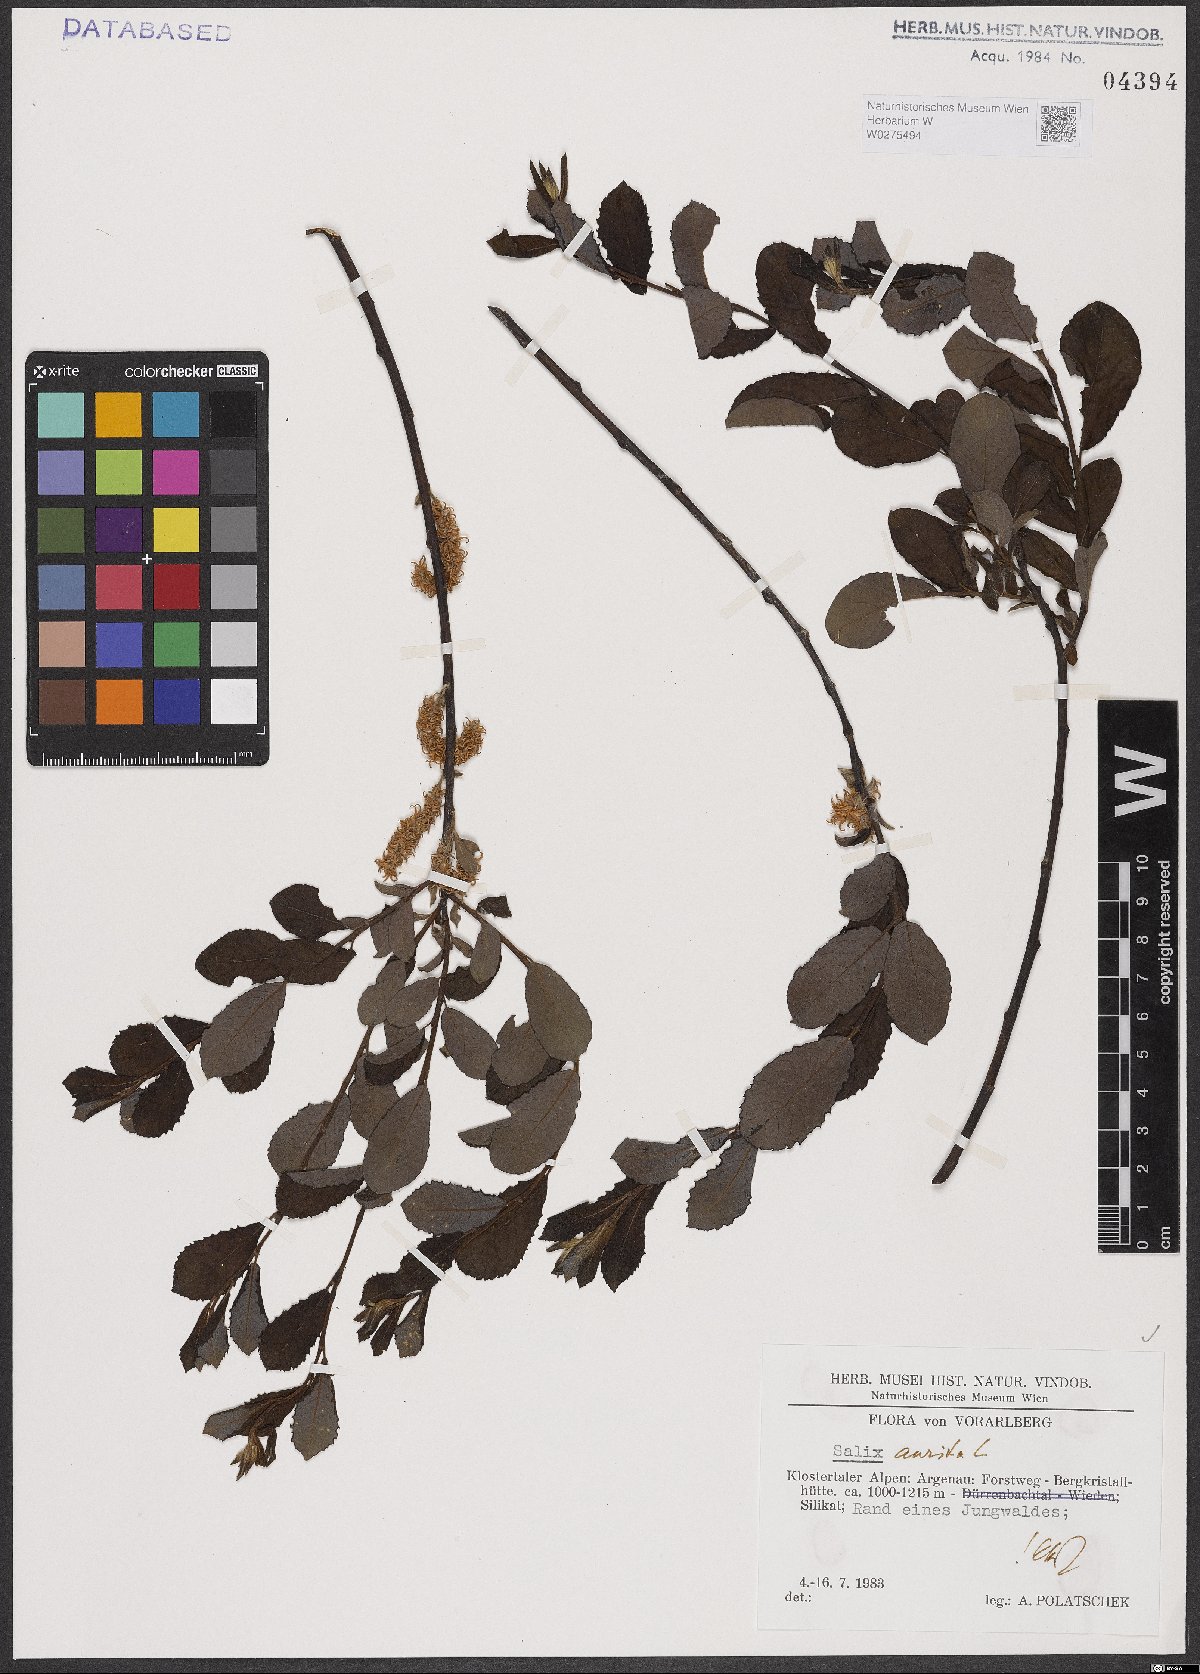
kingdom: Plantae
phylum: Tracheophyta
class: Magnoliopsida
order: Malpighiales
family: Salicaceae
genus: Salix
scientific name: Salix aurita
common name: Eared willow
